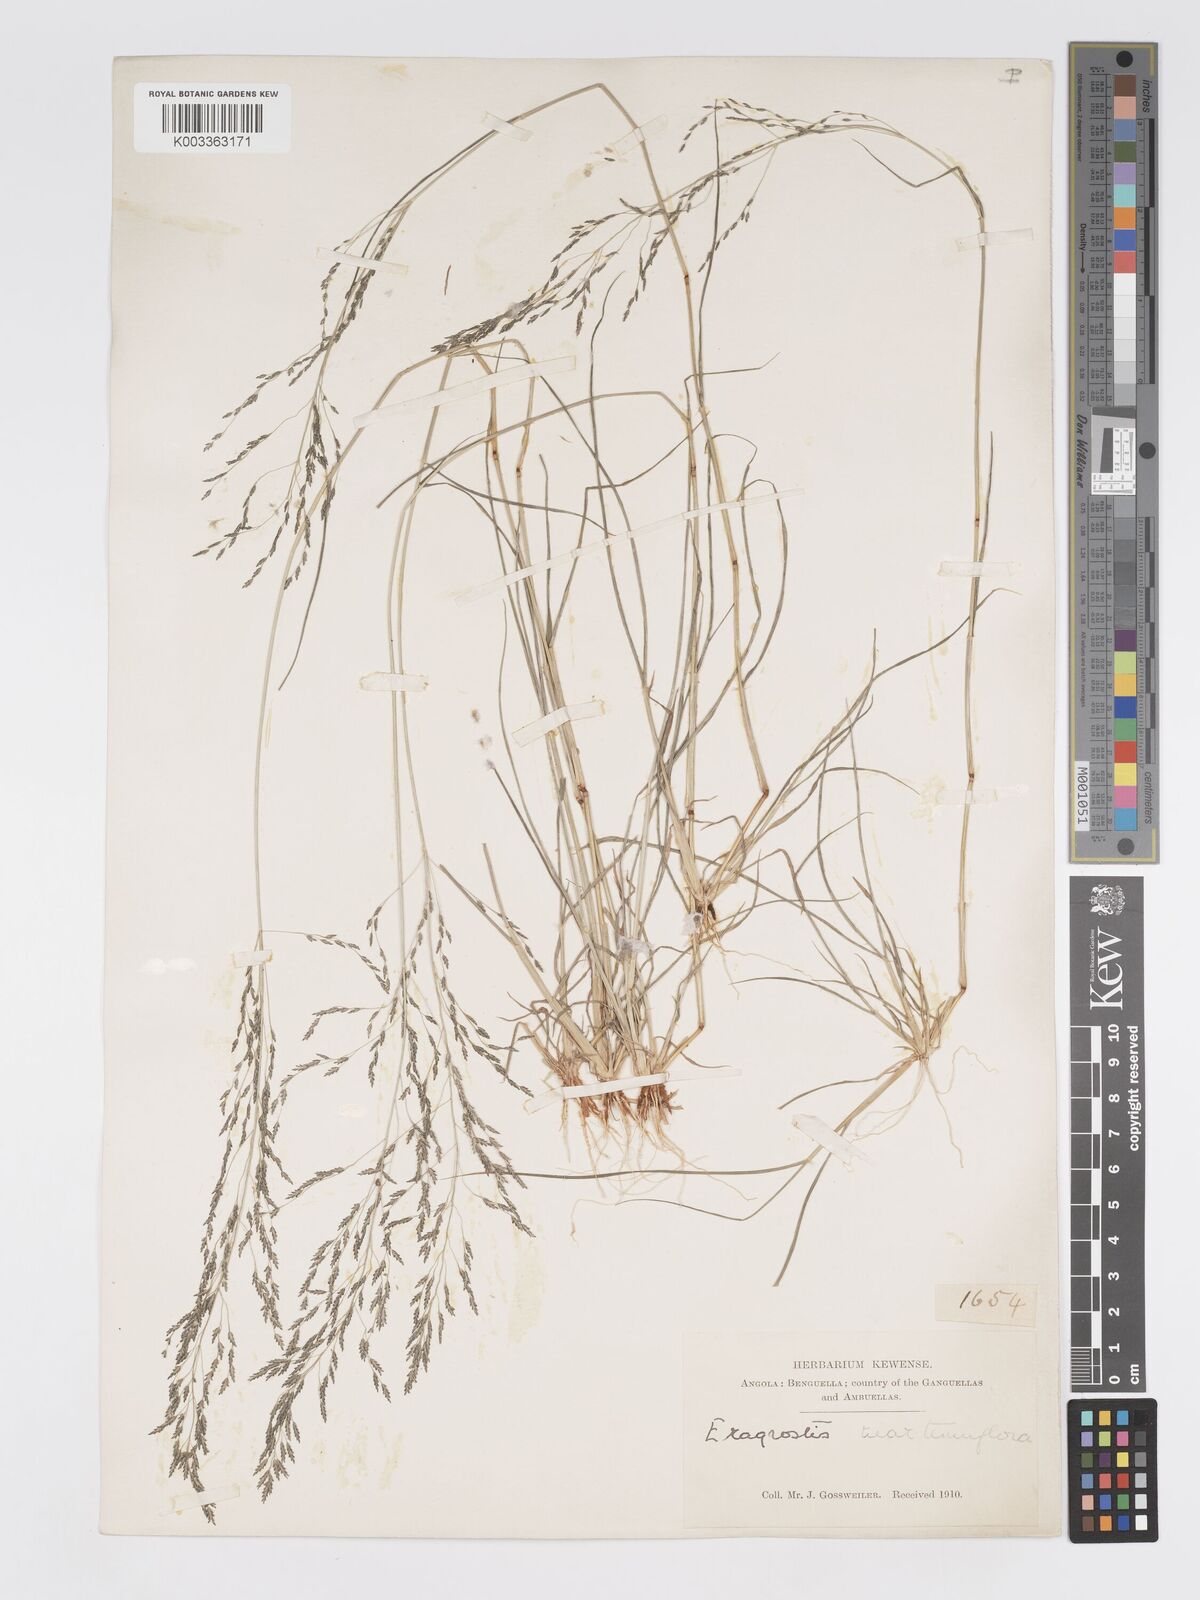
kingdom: Plantae
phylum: Tracheophyta
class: Liliopsida
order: Poales
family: Poaceae
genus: Eragrostis
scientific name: Eragrostis cylindriflora
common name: Cylinderflower lovegrass
